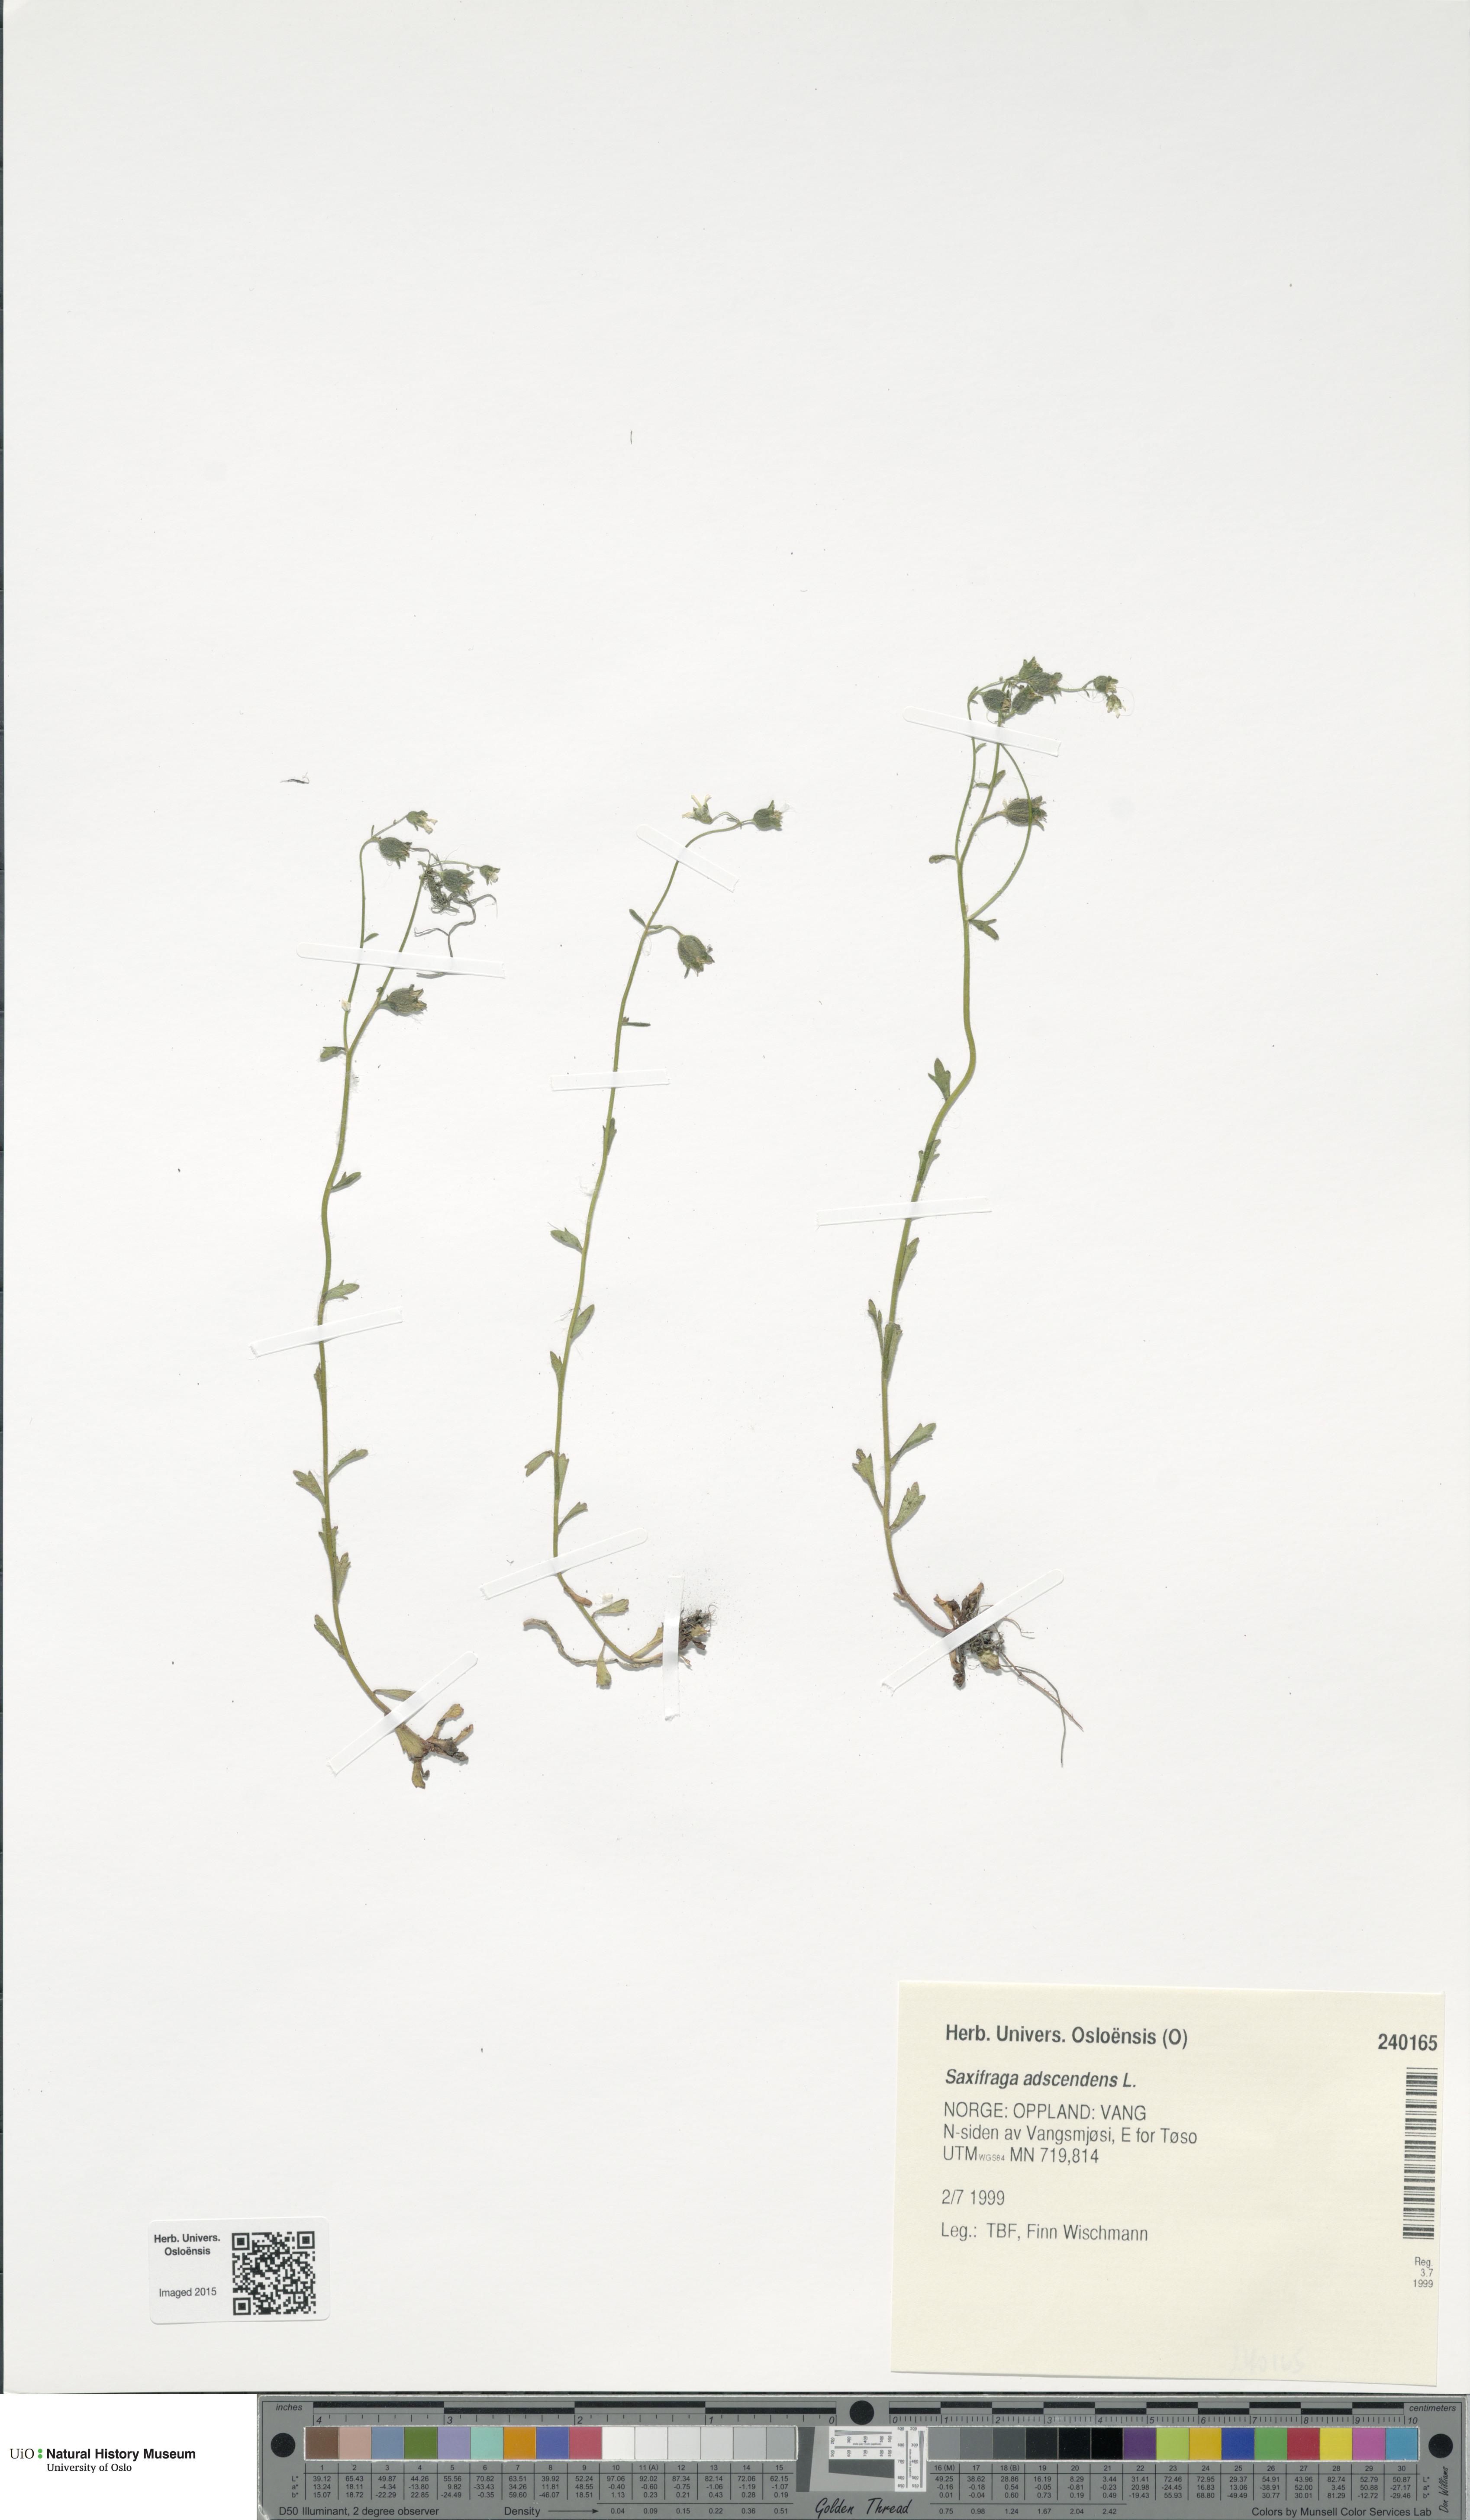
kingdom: Plantae
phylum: Tracheophyta
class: Magnoliopsida
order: Saxifragales
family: Saxifragaceae
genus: Saxifraga
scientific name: Saxifraga adscendens
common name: Ascending saxifrage
